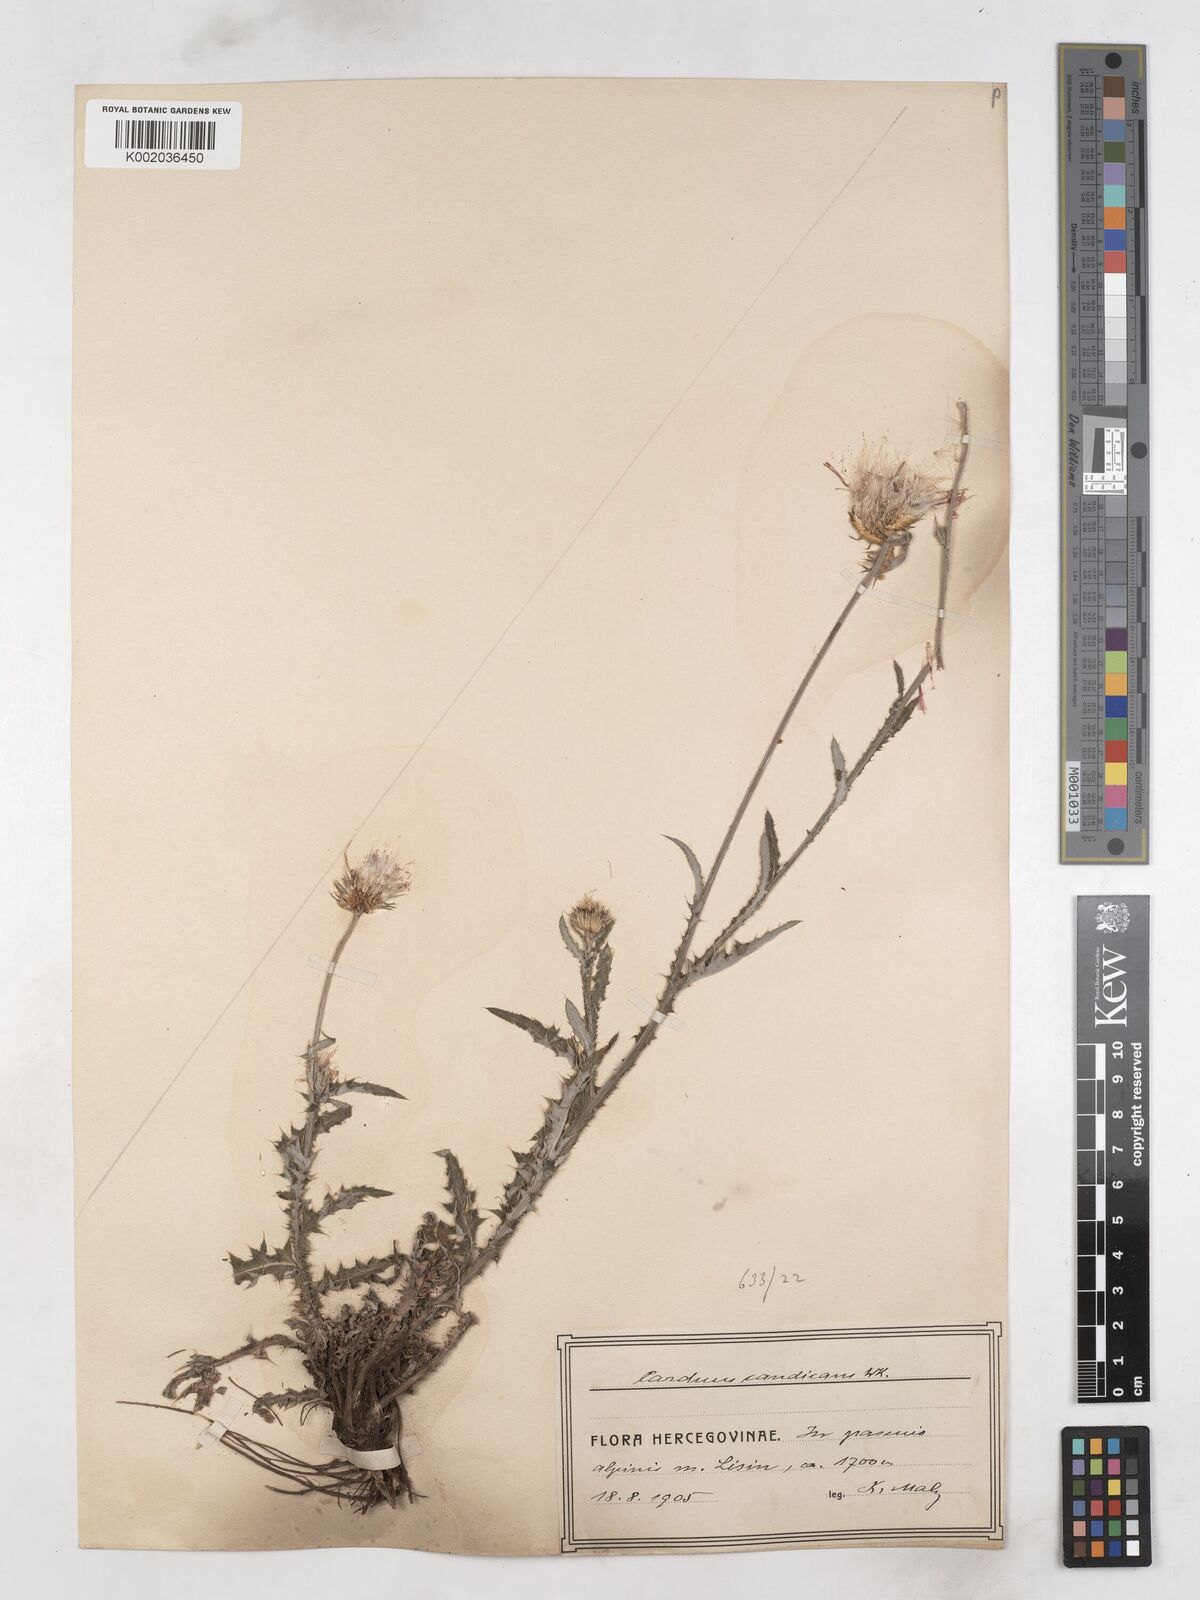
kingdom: Plantae
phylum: Tracheophyta
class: Magnoliopsida
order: Asterales
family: Asteraceae
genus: Carduus
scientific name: Carduus candicans
